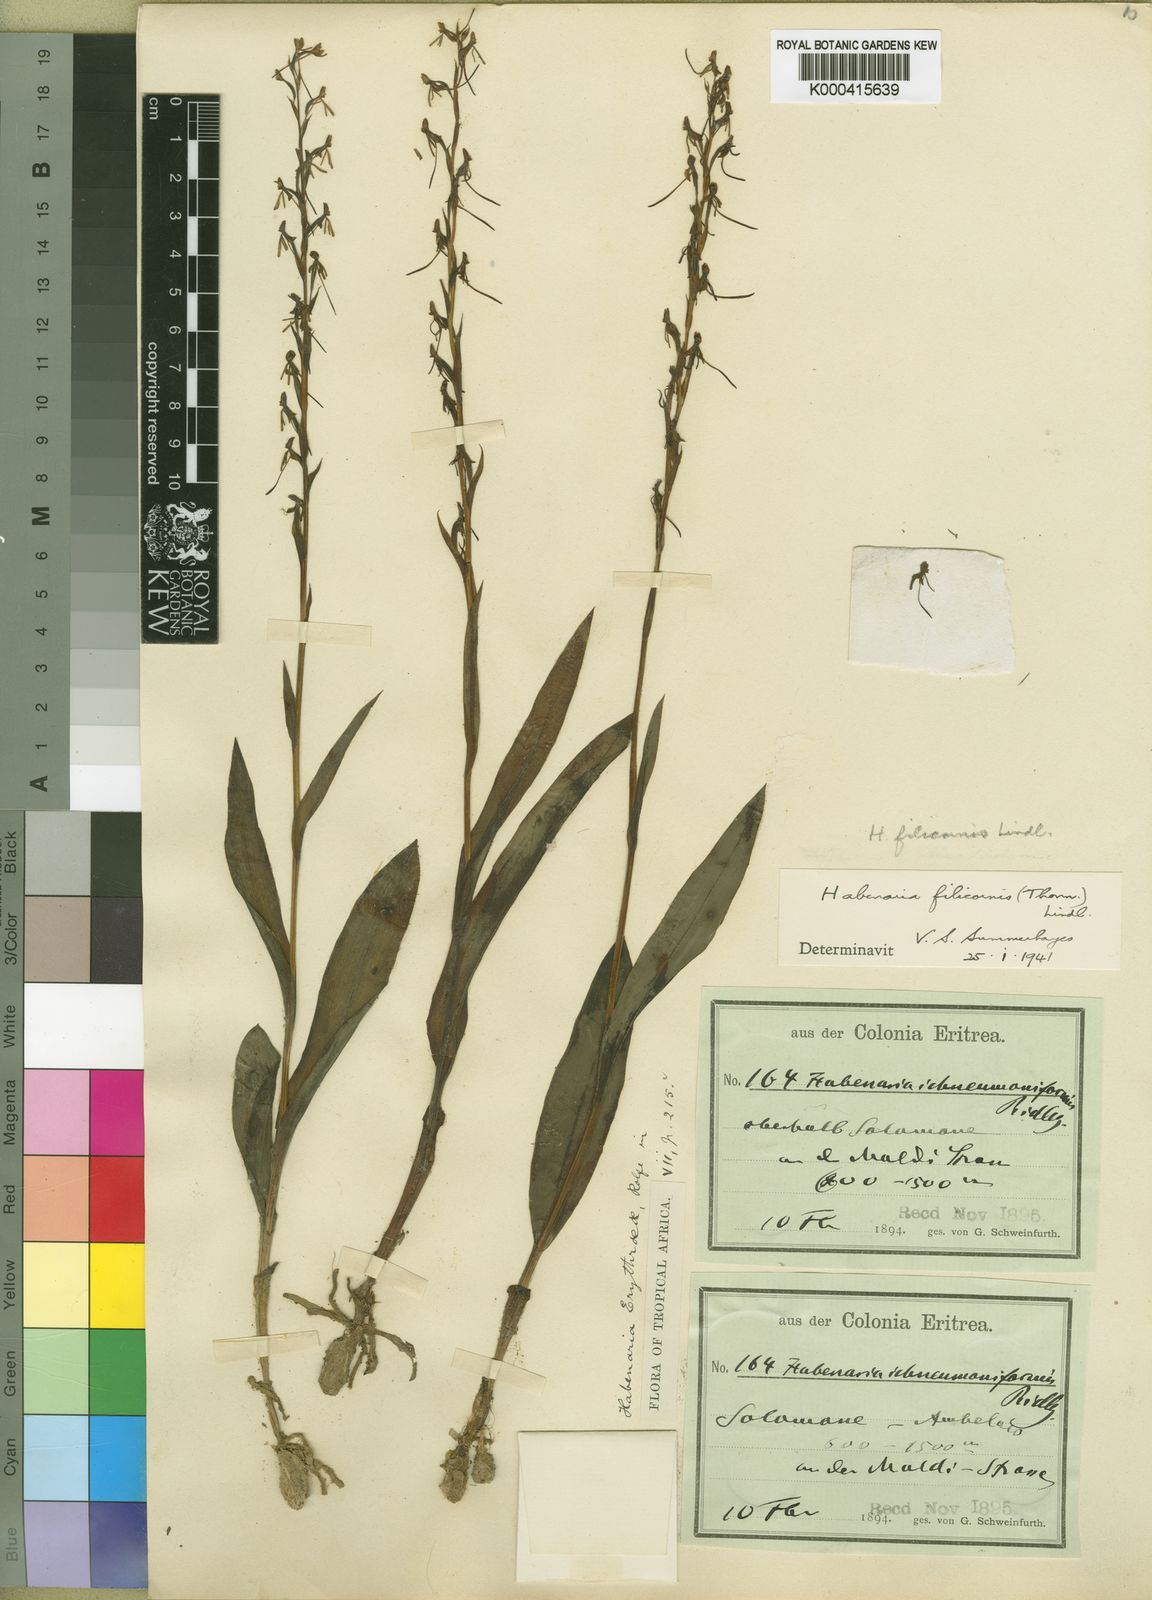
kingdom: Plantae
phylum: Tracheophyta
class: Liliopsida
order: Asparagales
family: Orchidaceae
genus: Habenaria
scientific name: Habenaria filicornis
